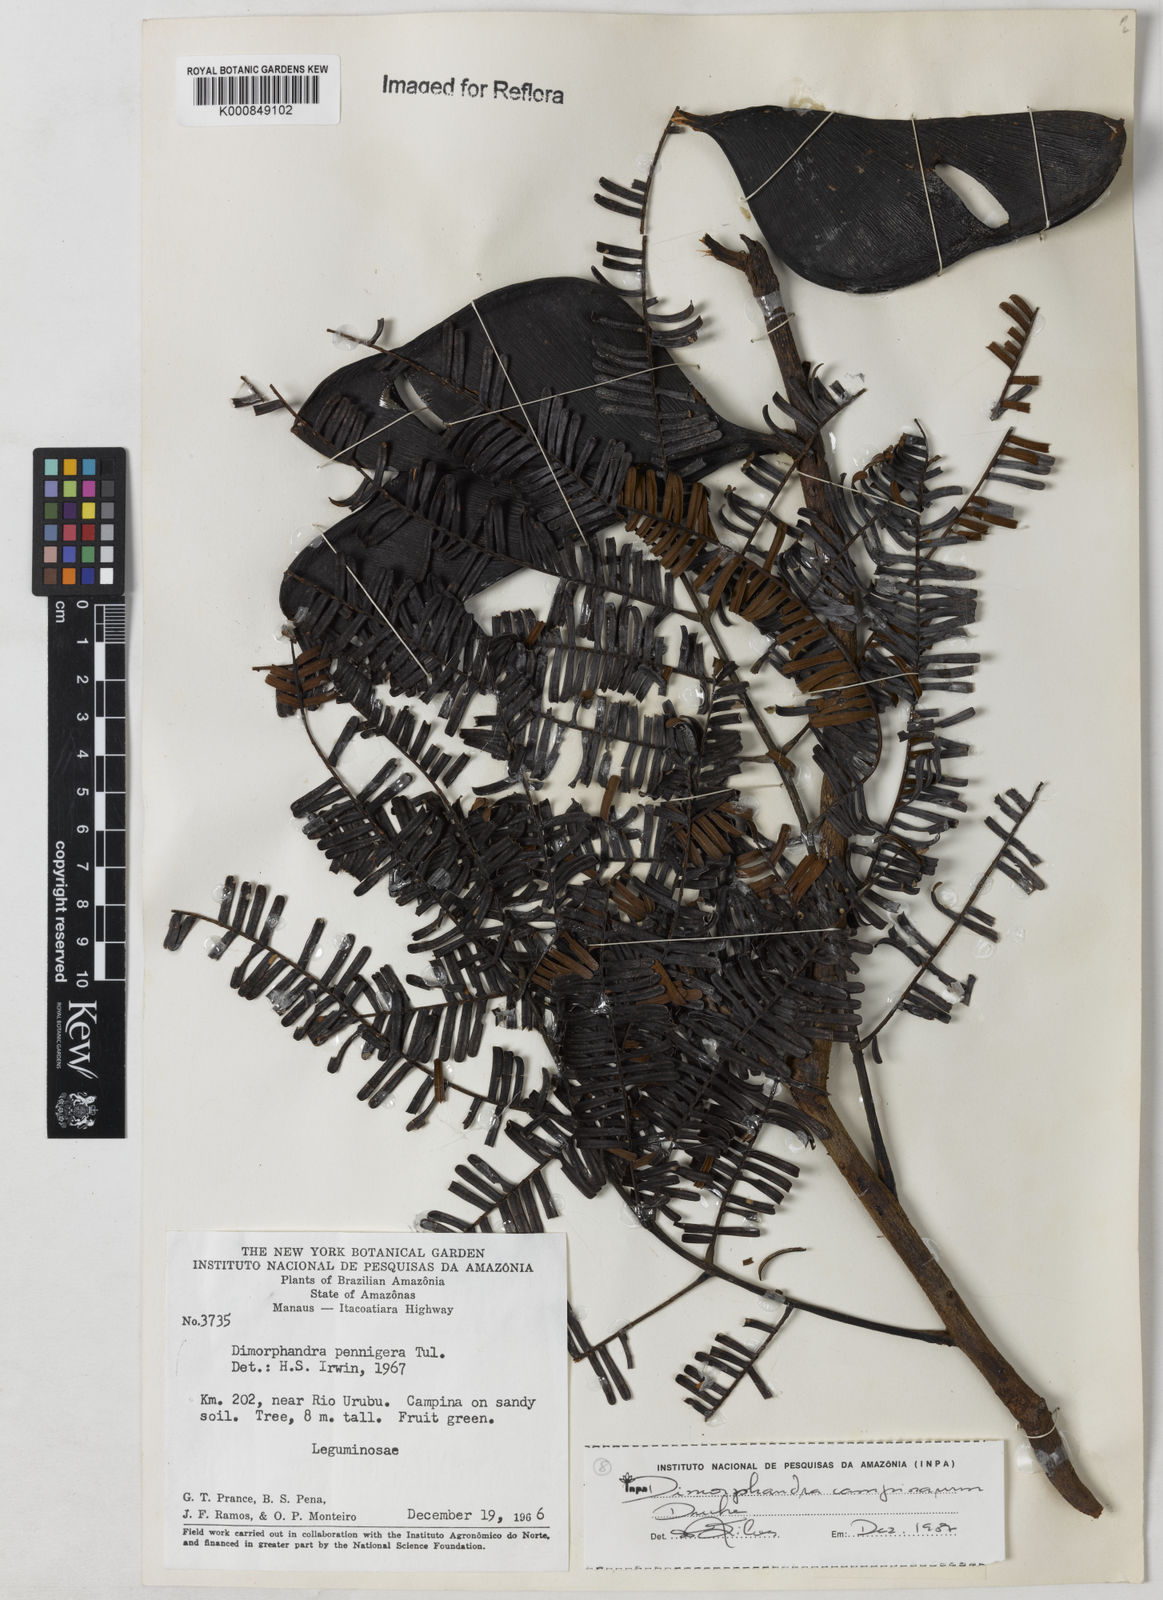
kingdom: Plantae
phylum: Tracheophyta
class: Magnoliopsida
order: Fabales
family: Fabaceae
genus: Dimorphandra
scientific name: Dimorphandra campinarum
